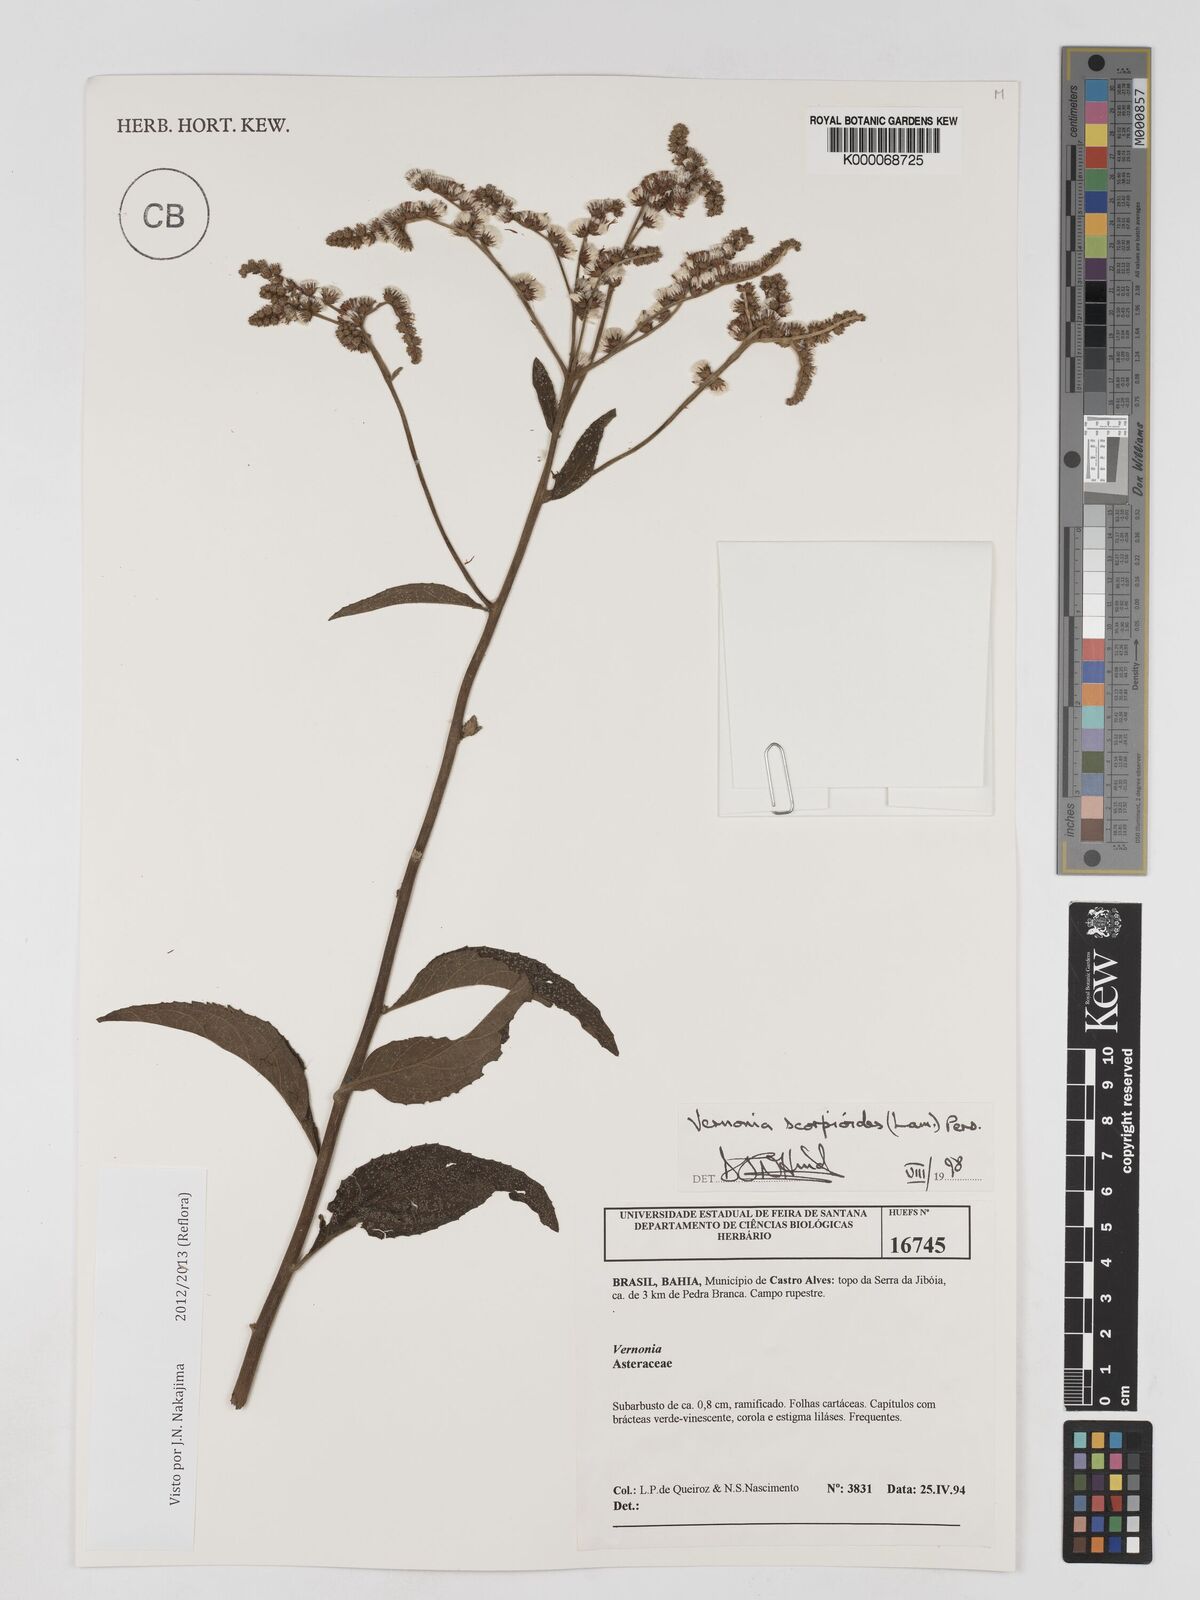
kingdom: Plantae
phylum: Tracheophyta
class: Magnoliopsida
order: Asterales
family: Asteraceae
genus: Cyrtocymura
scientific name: Cyrtocymura scorpioides
